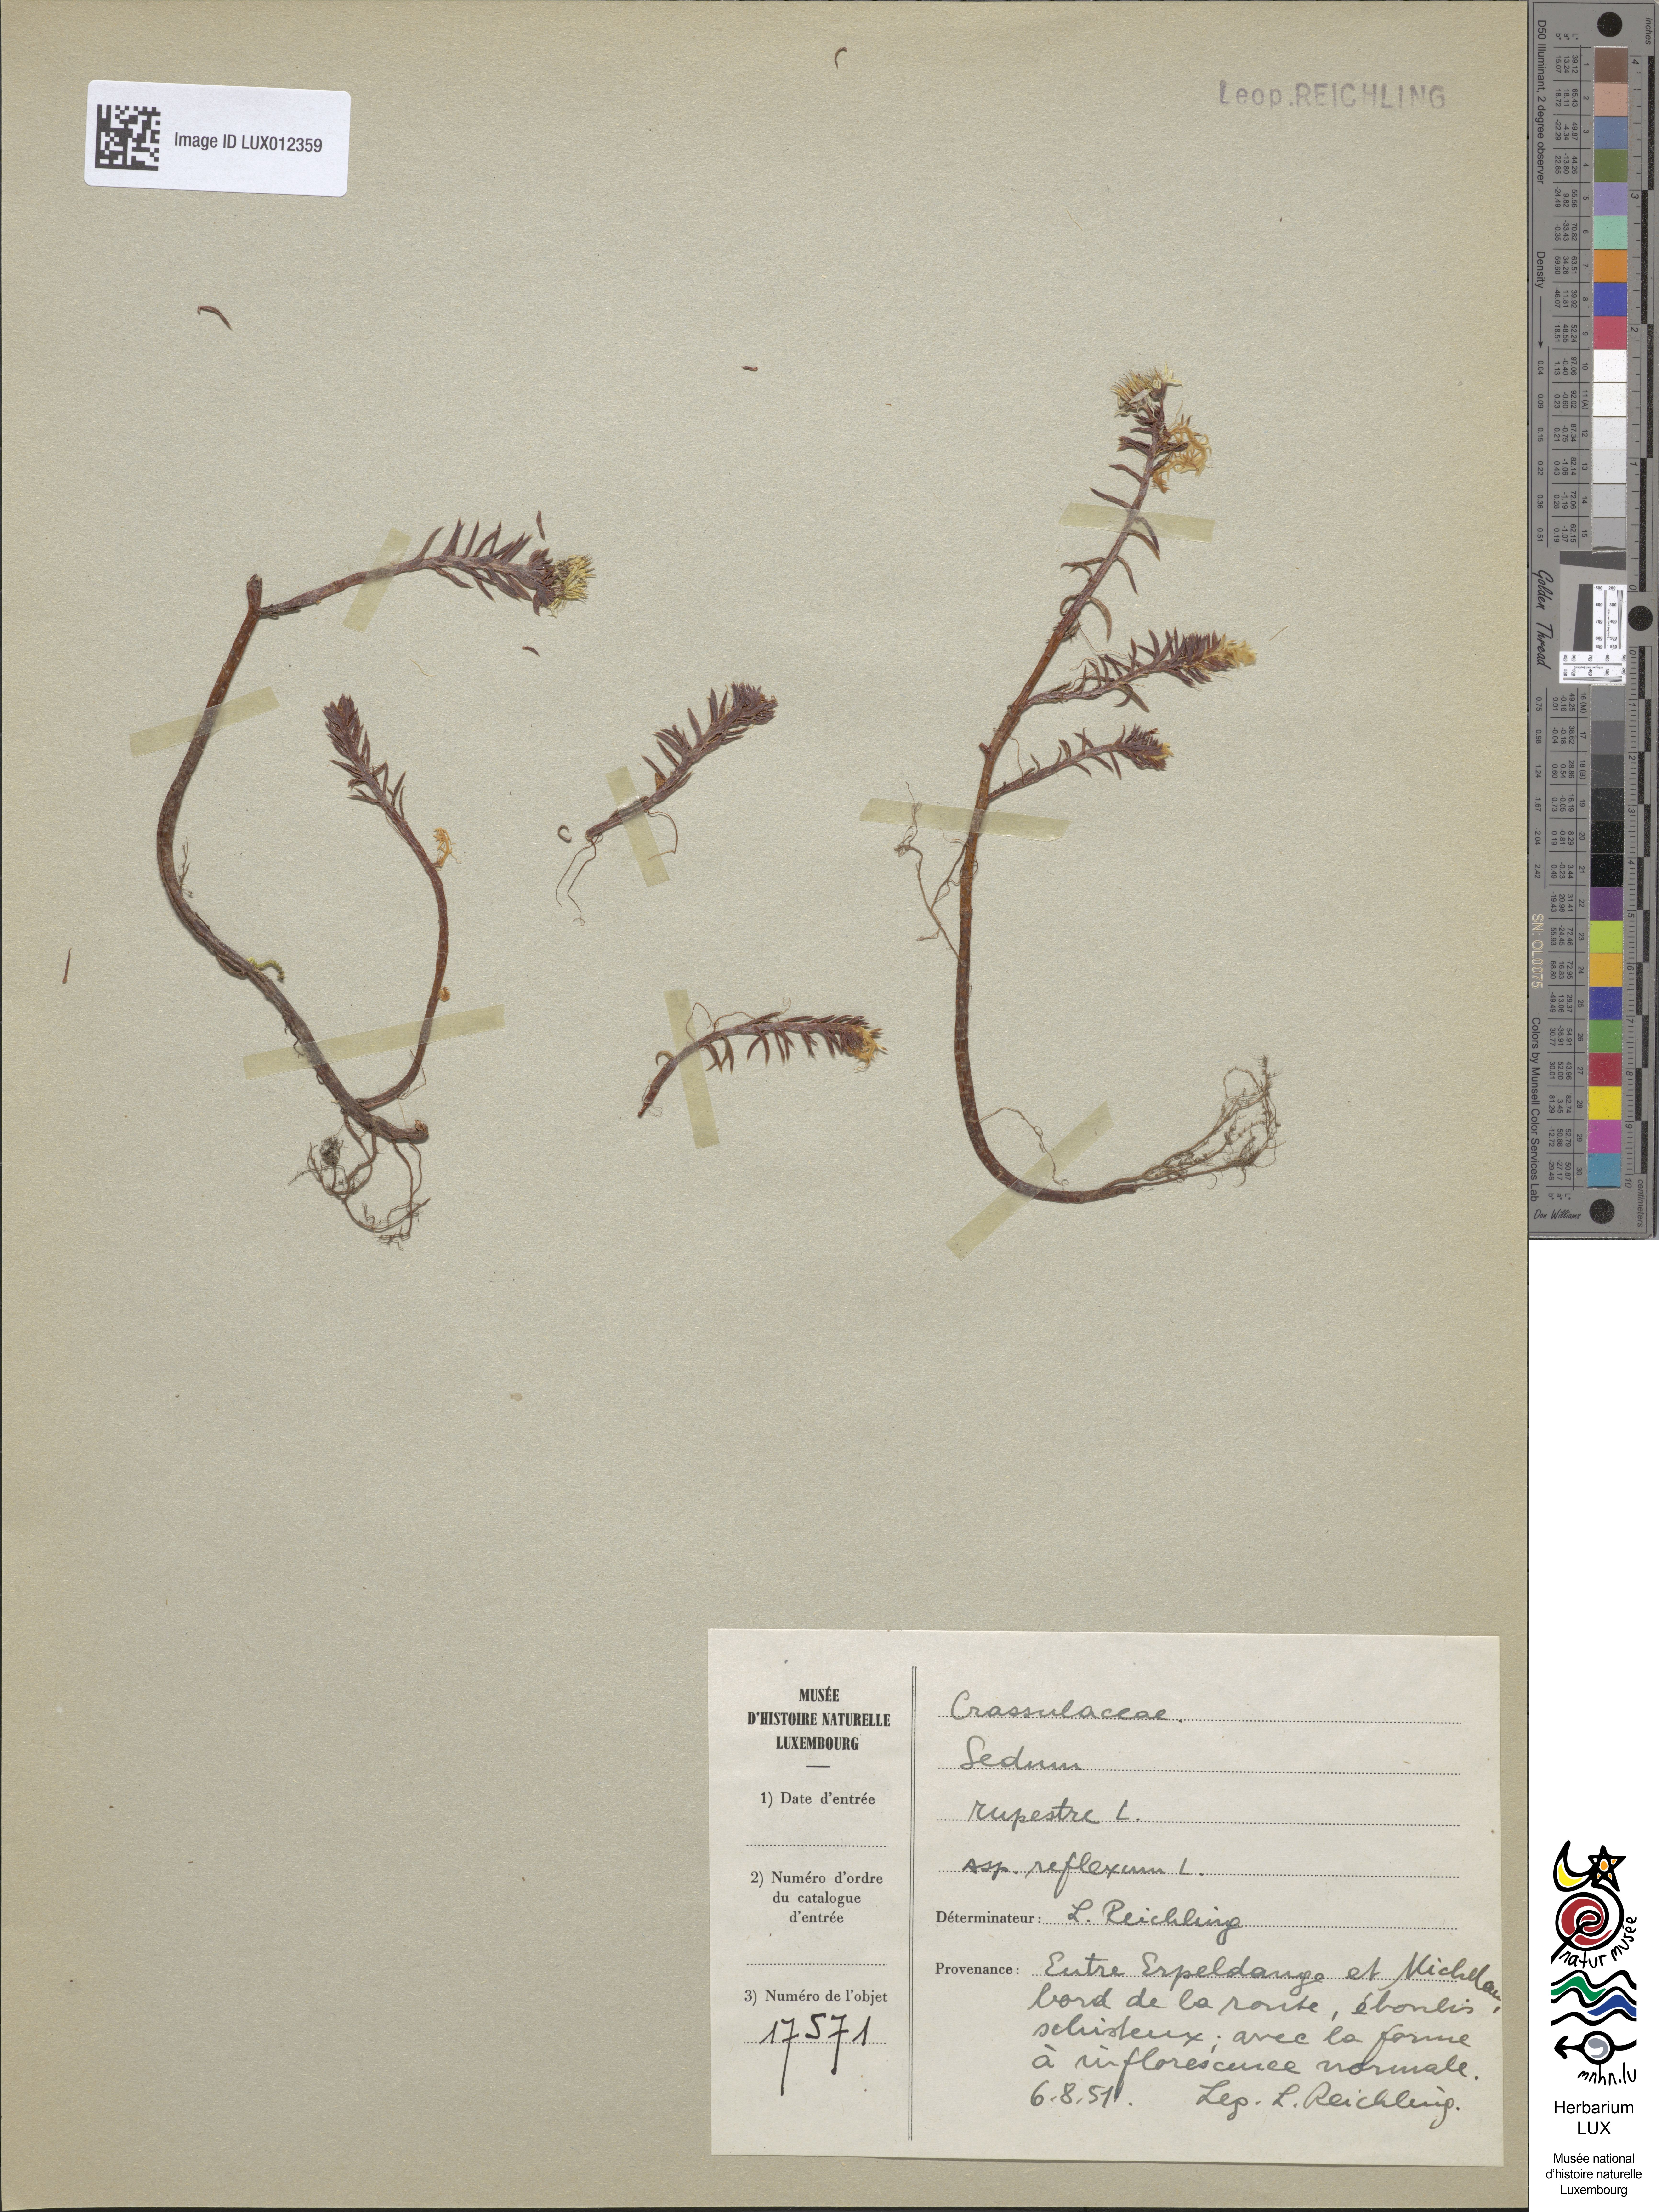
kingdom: Plantae
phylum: Tracheophyta
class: Magnoliopsida
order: Saxifragales
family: Crassulaceae
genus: Petrosedum
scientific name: Petrosedum rupestre
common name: Jenny's stonecrop
